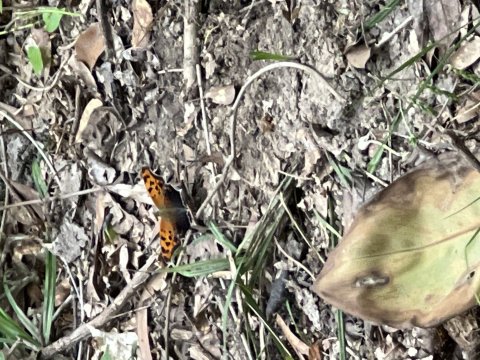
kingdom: Animalia
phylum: Arthropoda
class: Insecta
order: Lepidoptera
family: Nymphalidae
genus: Polygonia
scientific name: Polygonia interrogationis
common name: Question Mark
